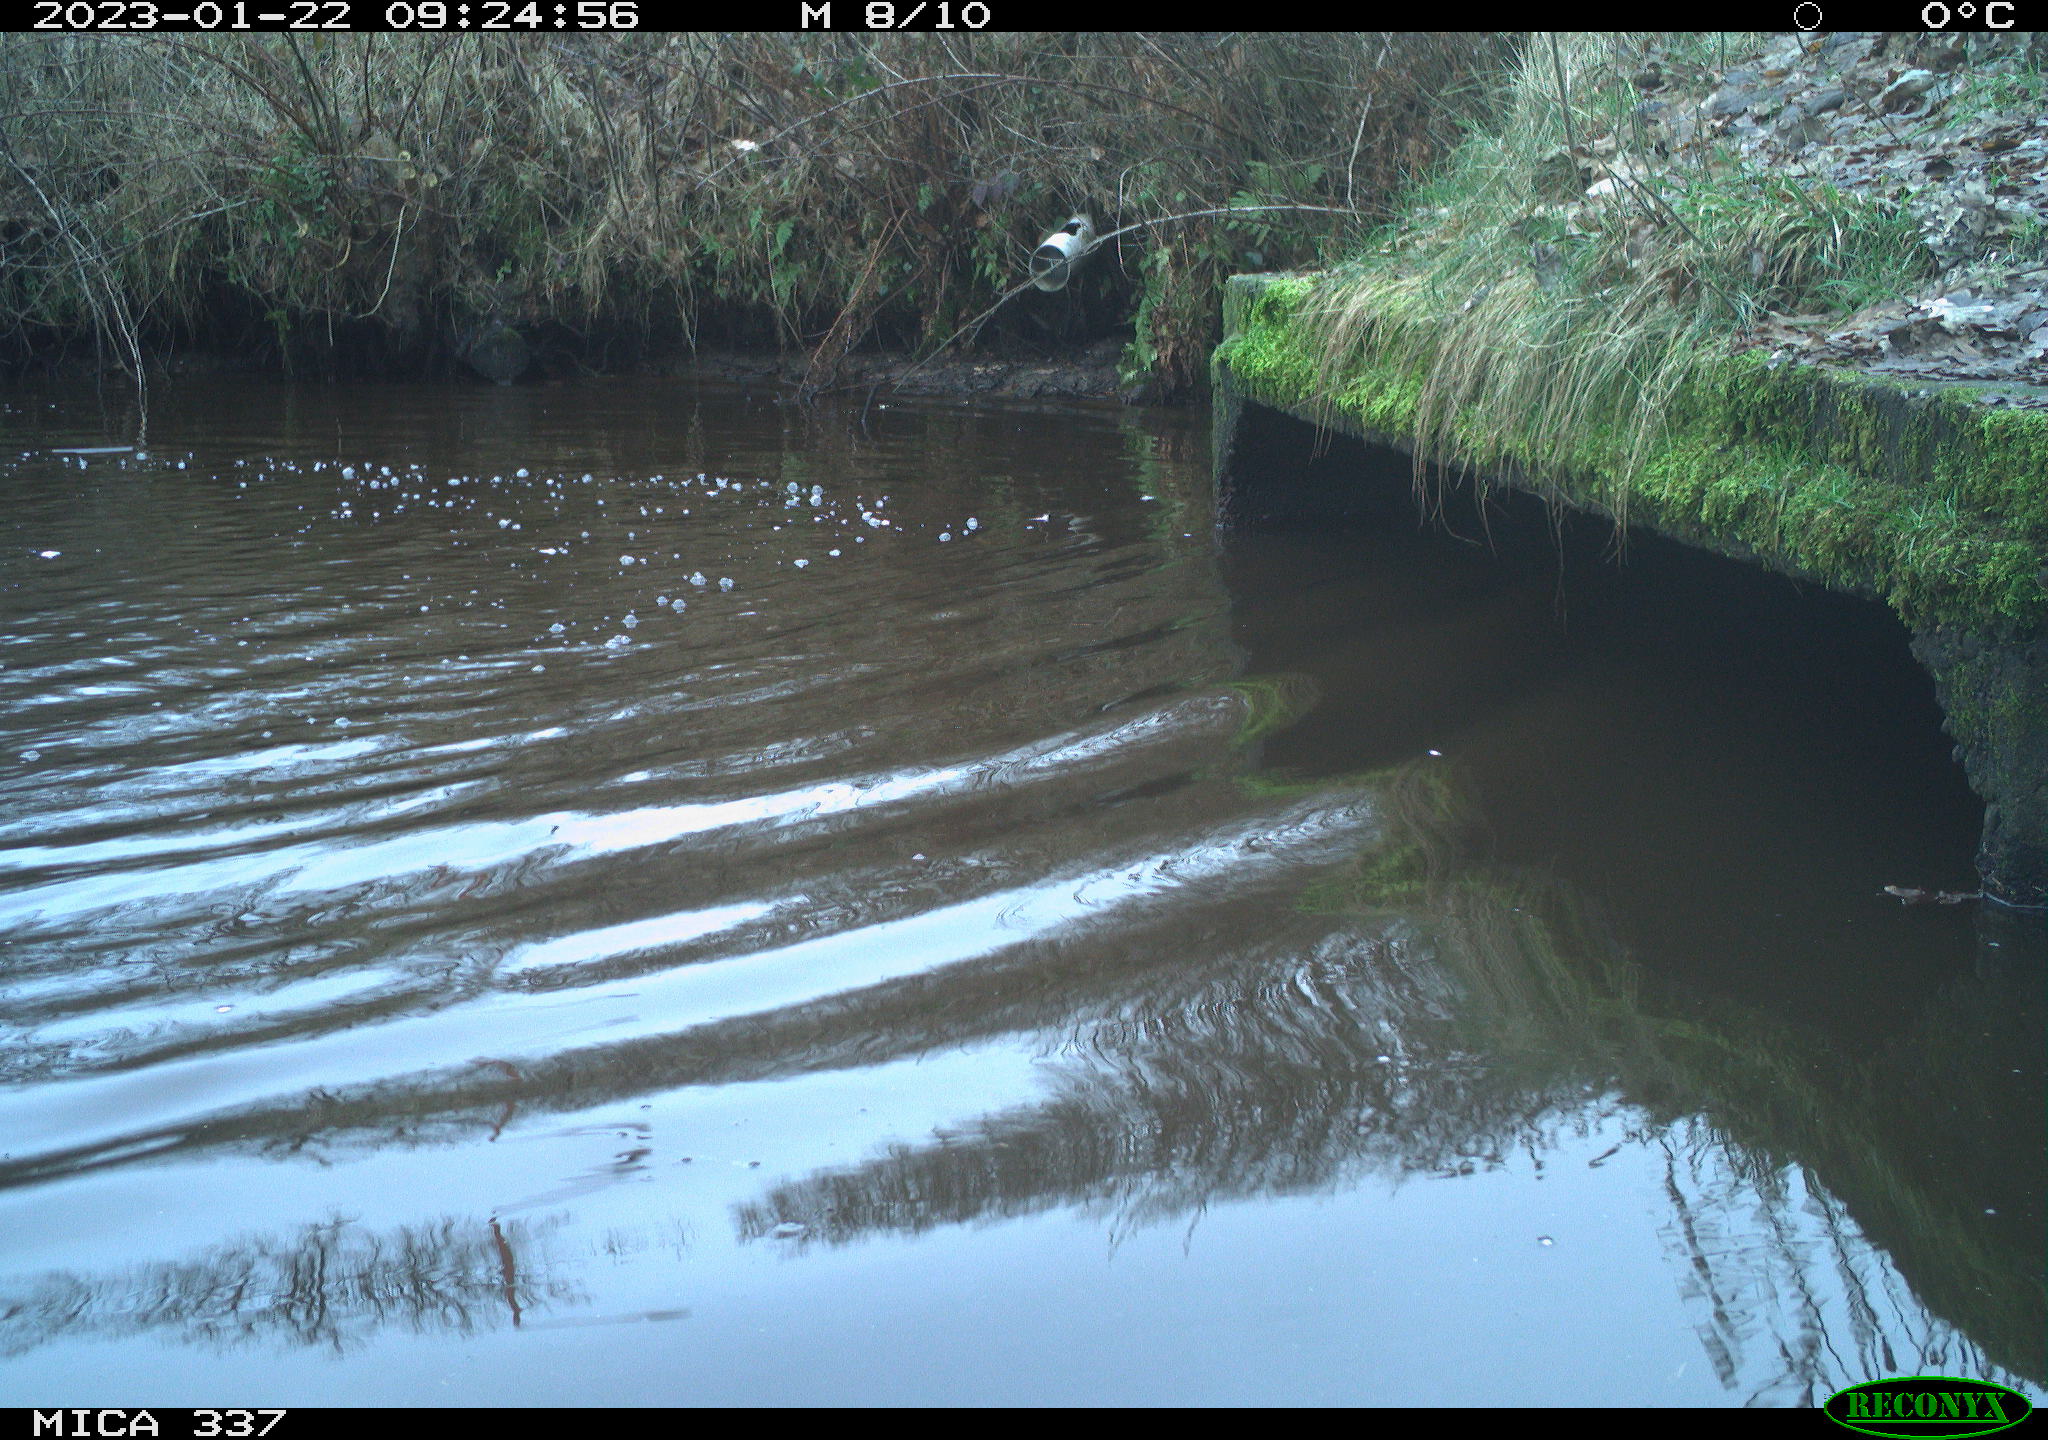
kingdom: Animalia
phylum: Chordata
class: Aves
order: Anseriformes
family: Anatidae
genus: Anas
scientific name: Anas
